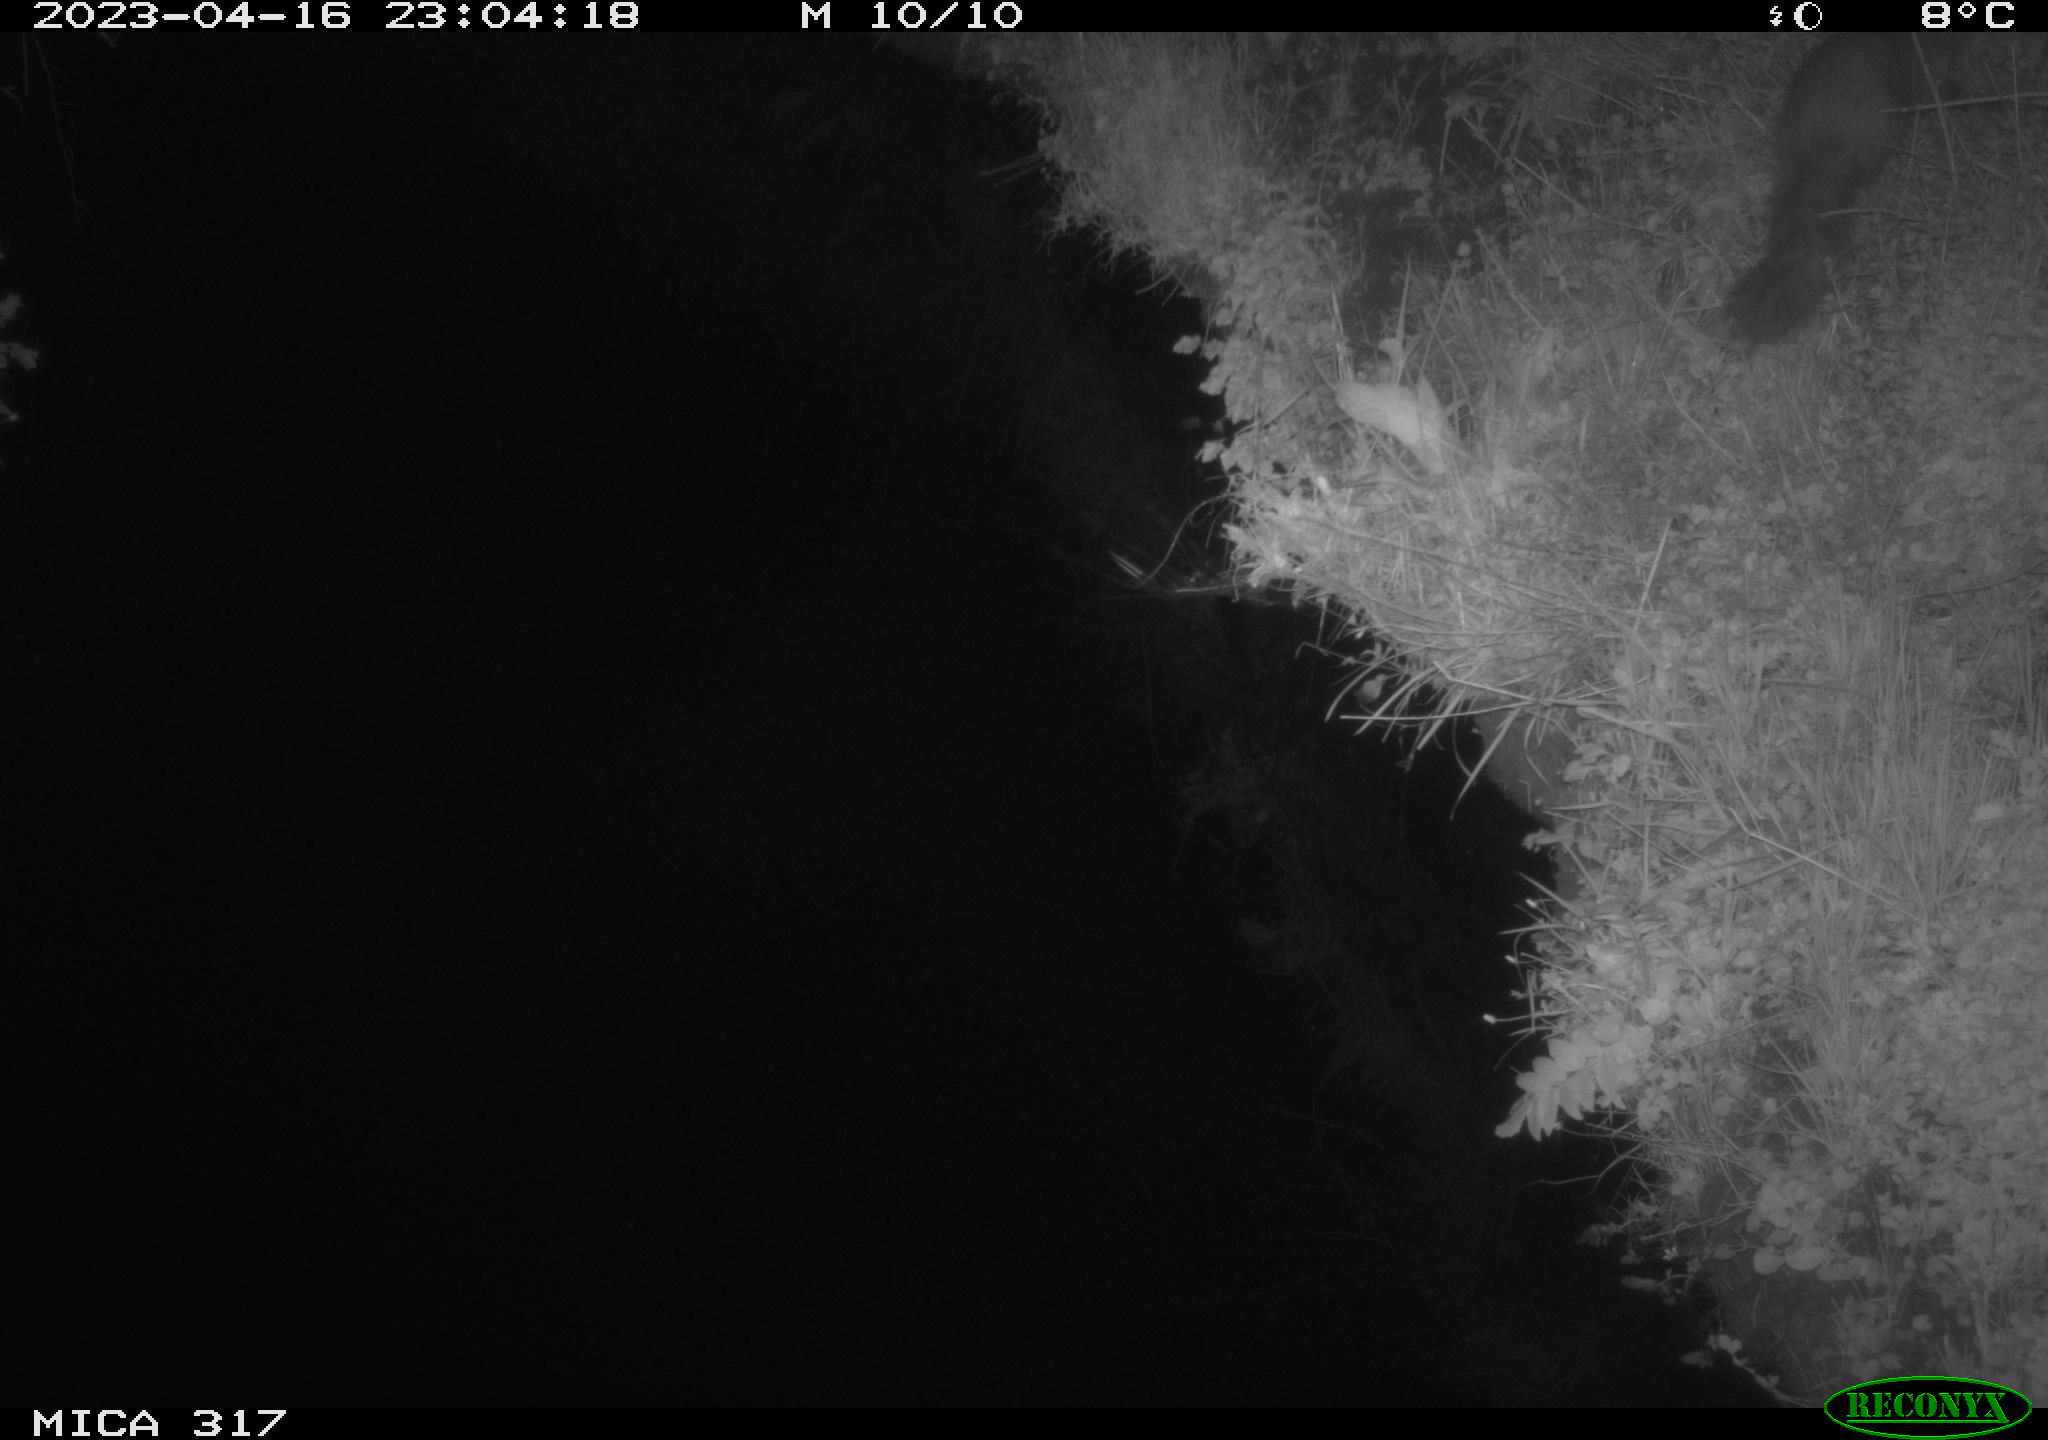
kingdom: Animalia
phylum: Chordata
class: Mammalia
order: Carnivora
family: Mustelidae
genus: Martes
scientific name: Martes
